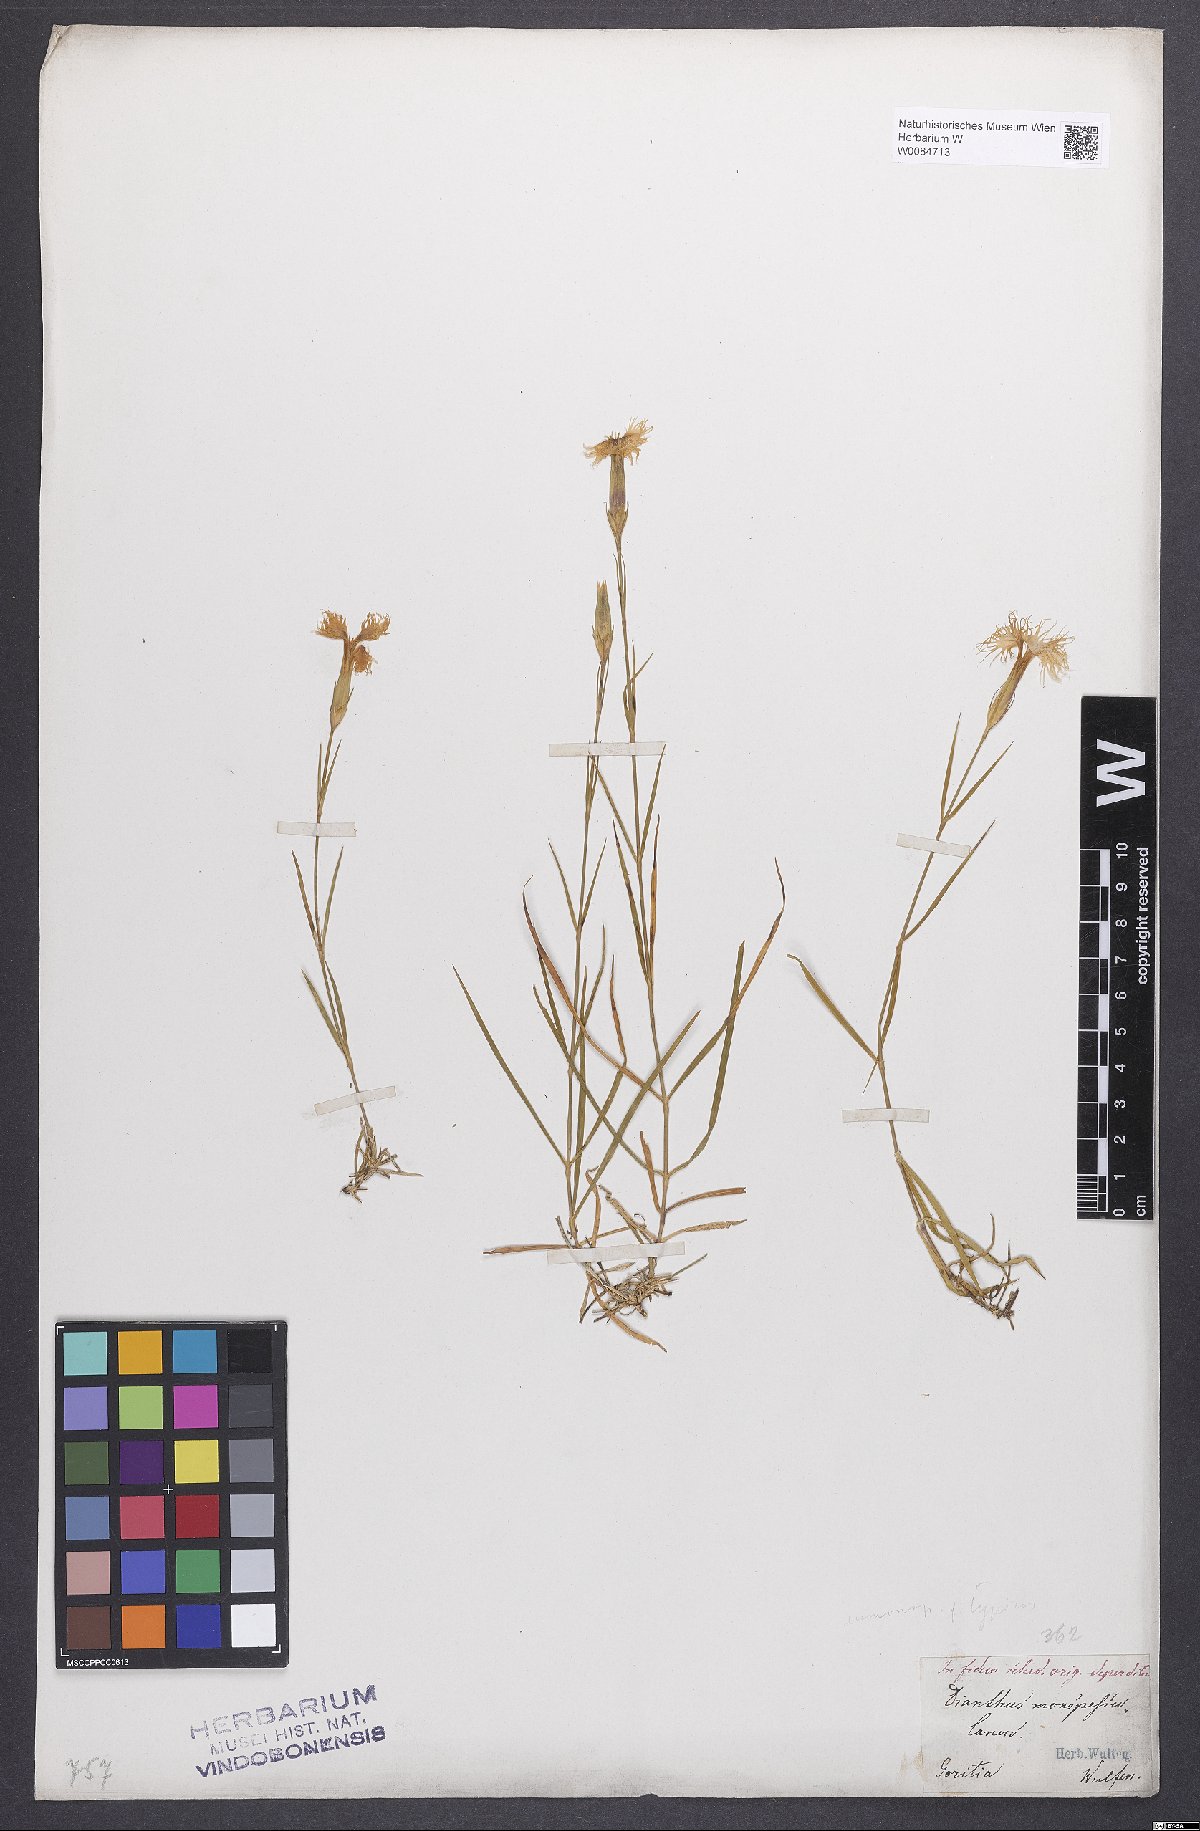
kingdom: Plantae
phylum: Tracheophyta
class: Magnoliopsida
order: Caryophyllales
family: Caryophyllaceae
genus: Dianthus
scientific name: Dianthus hyssopifolius
